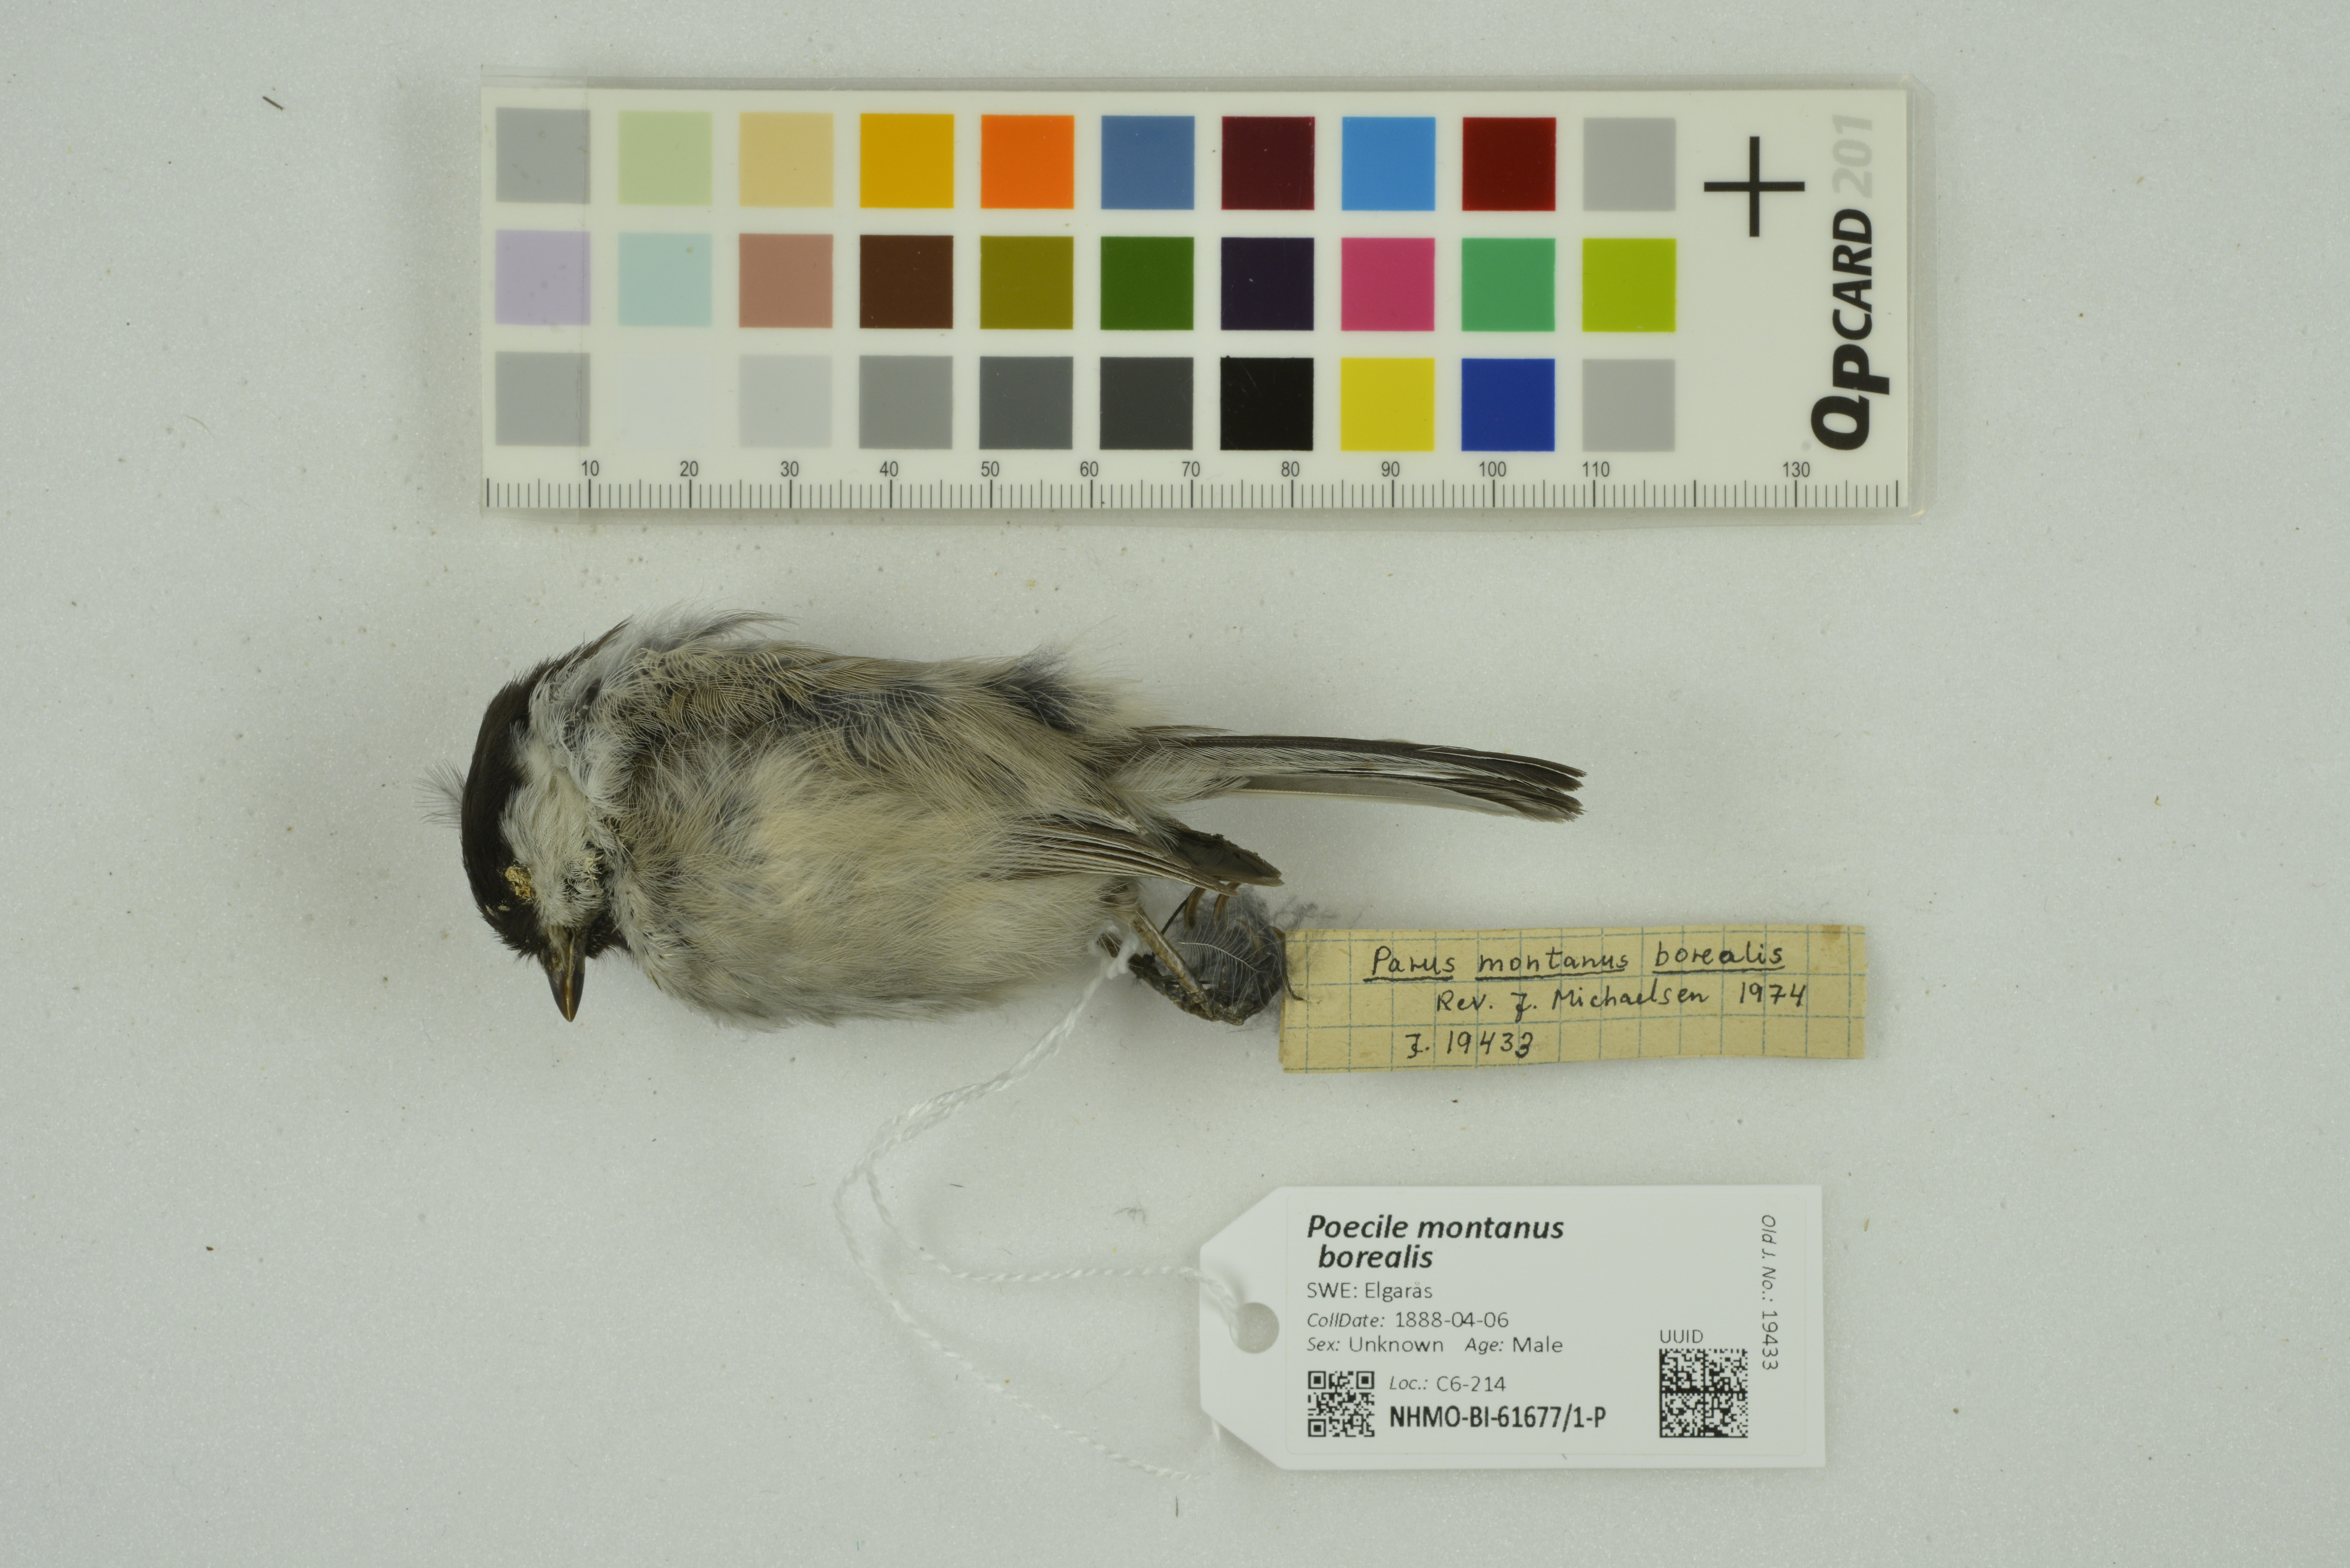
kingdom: Animalia
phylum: Chordata
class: Aves
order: Passeriformes
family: Paridae
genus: Poecile
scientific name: Poecile montanus
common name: Willow tit
